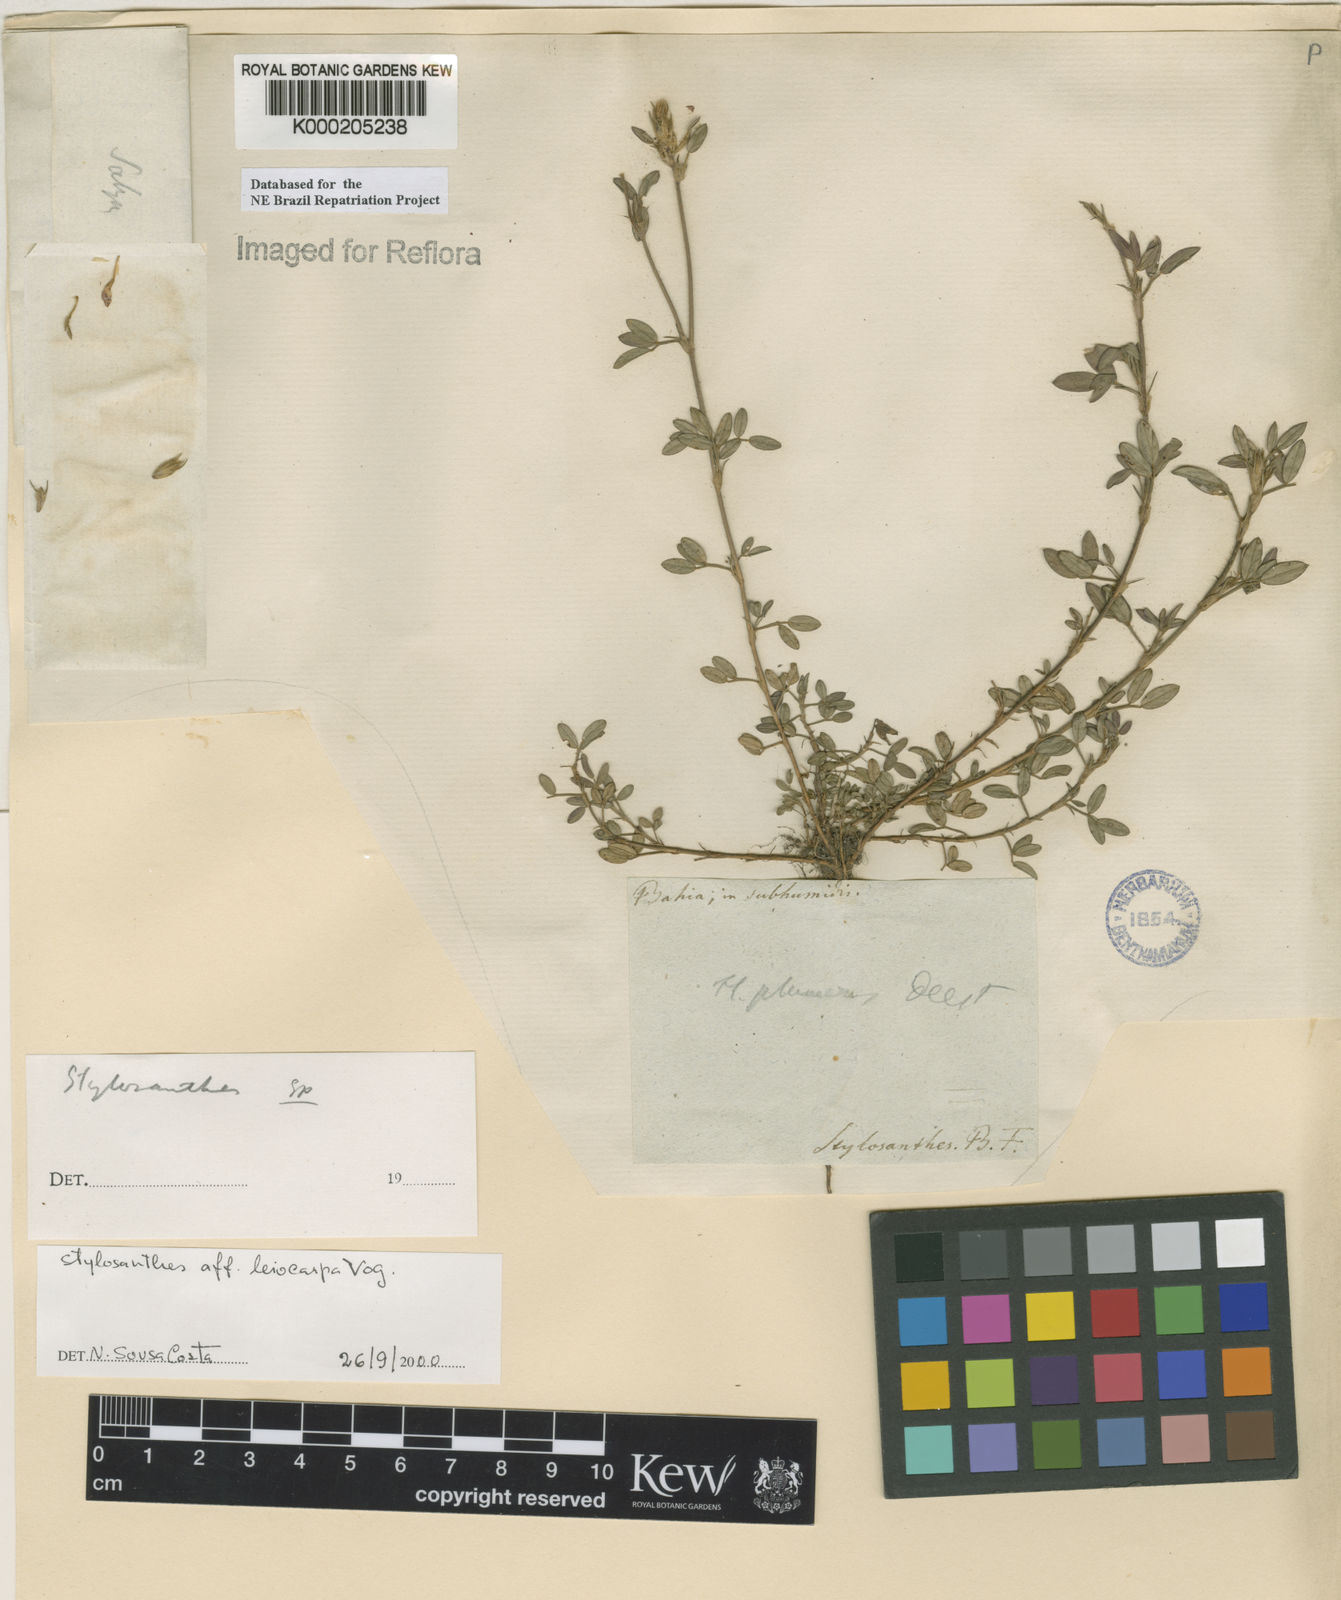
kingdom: Plantae
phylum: Tracheophyta
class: Magnoliopsida
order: Fabales
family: Fabaceae
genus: Stylosanthes
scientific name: Stylosanthes leiocarpa
